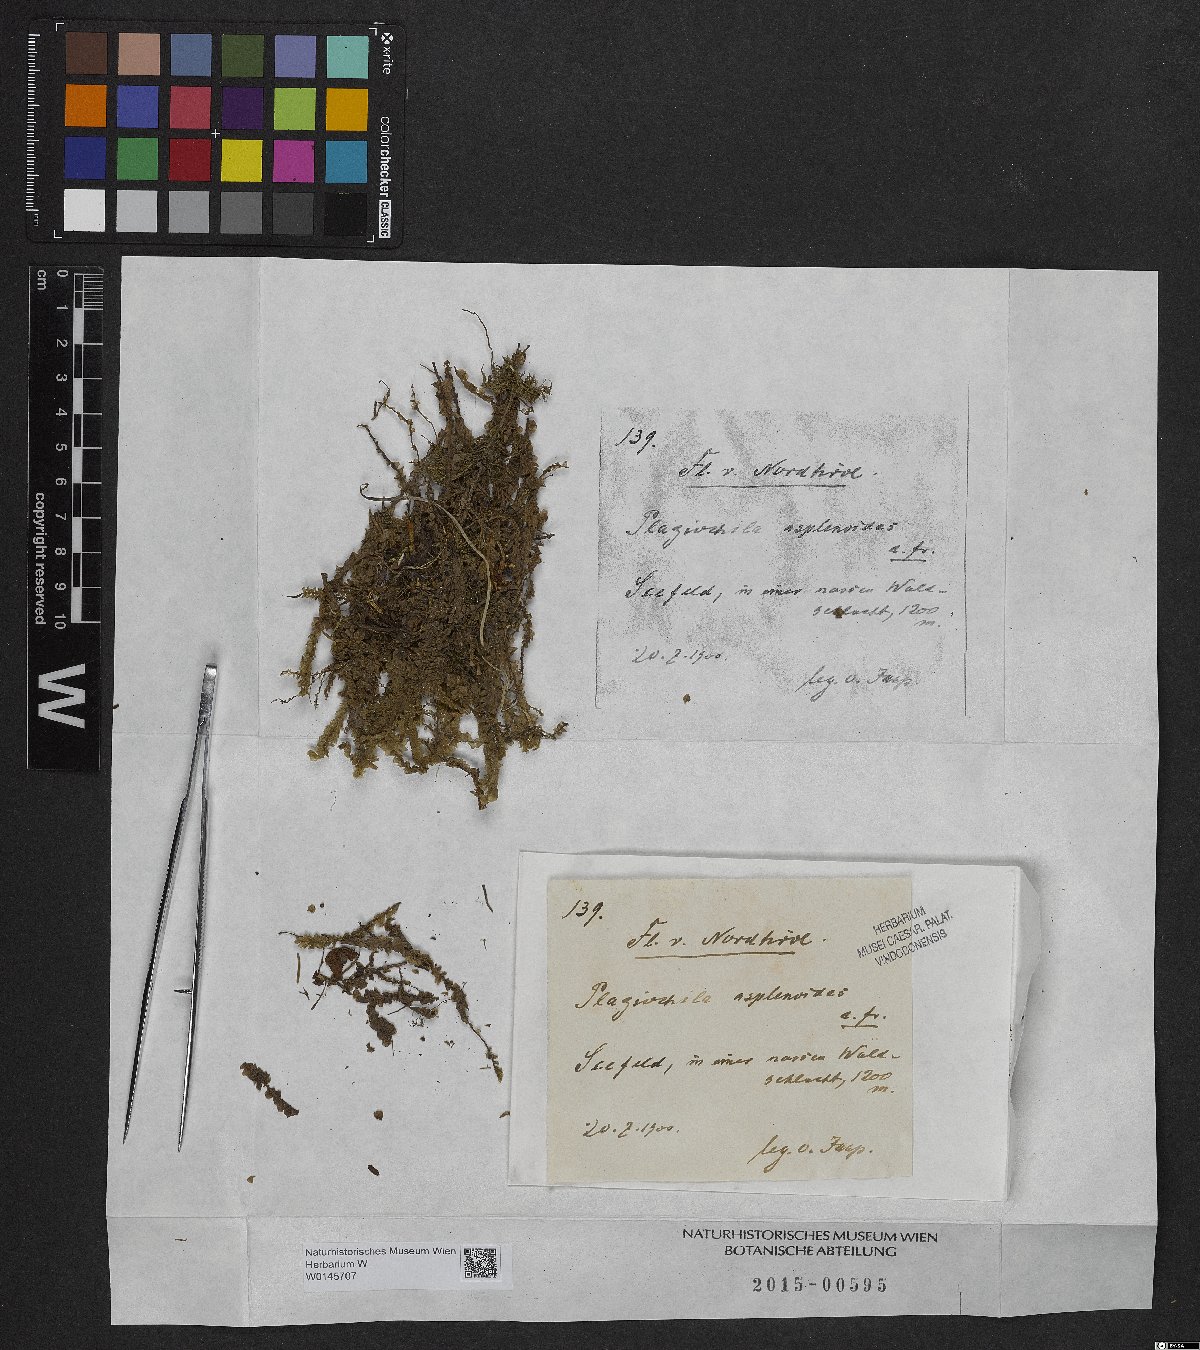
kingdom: Plantae
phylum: Marchantiophyta
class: Jungermanniopsida
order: Jungermanniales
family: Plagiochilaceae
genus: Plagiochila
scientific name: Plagiochila asplenioides
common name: Greater featherwort
